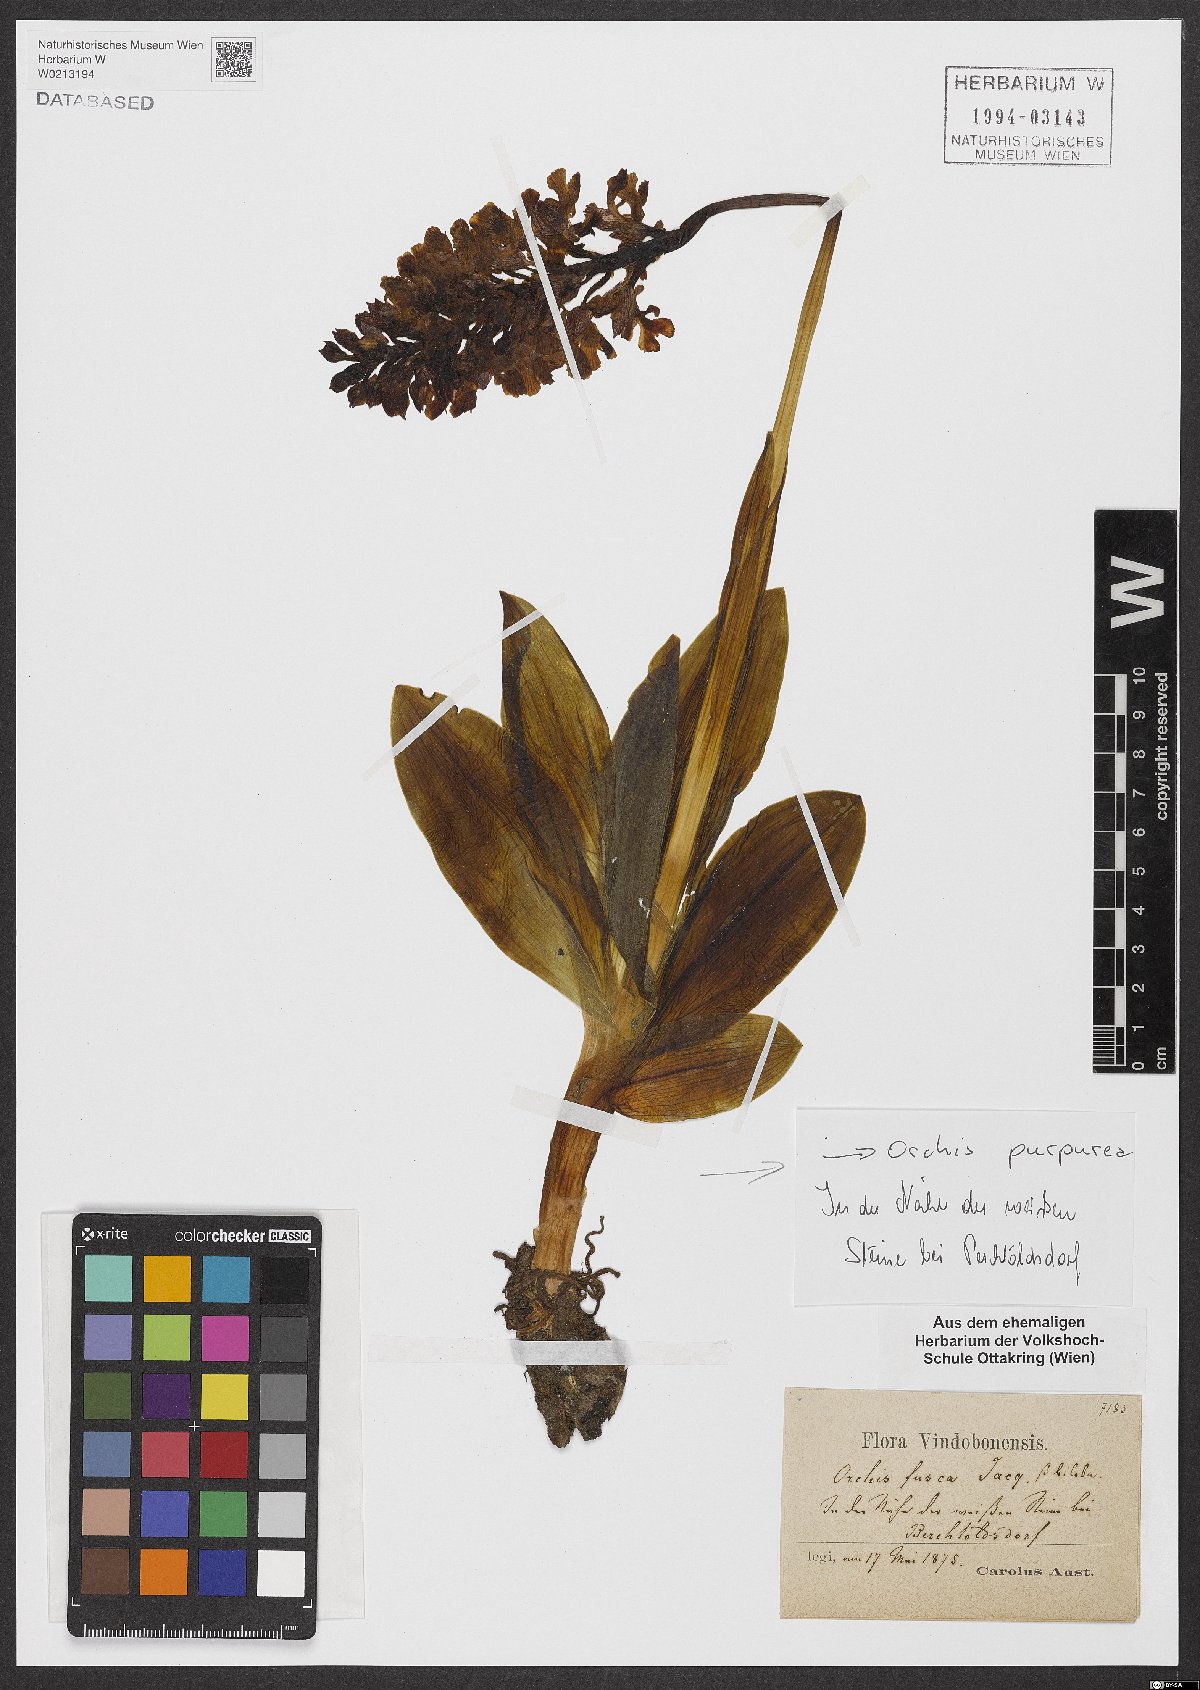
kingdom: Plantae
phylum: Tracheophyta
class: Liliopsida
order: Asparagales
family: Orchidaceae
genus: Orchis
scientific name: Orchis purpurea
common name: Lady orchid
